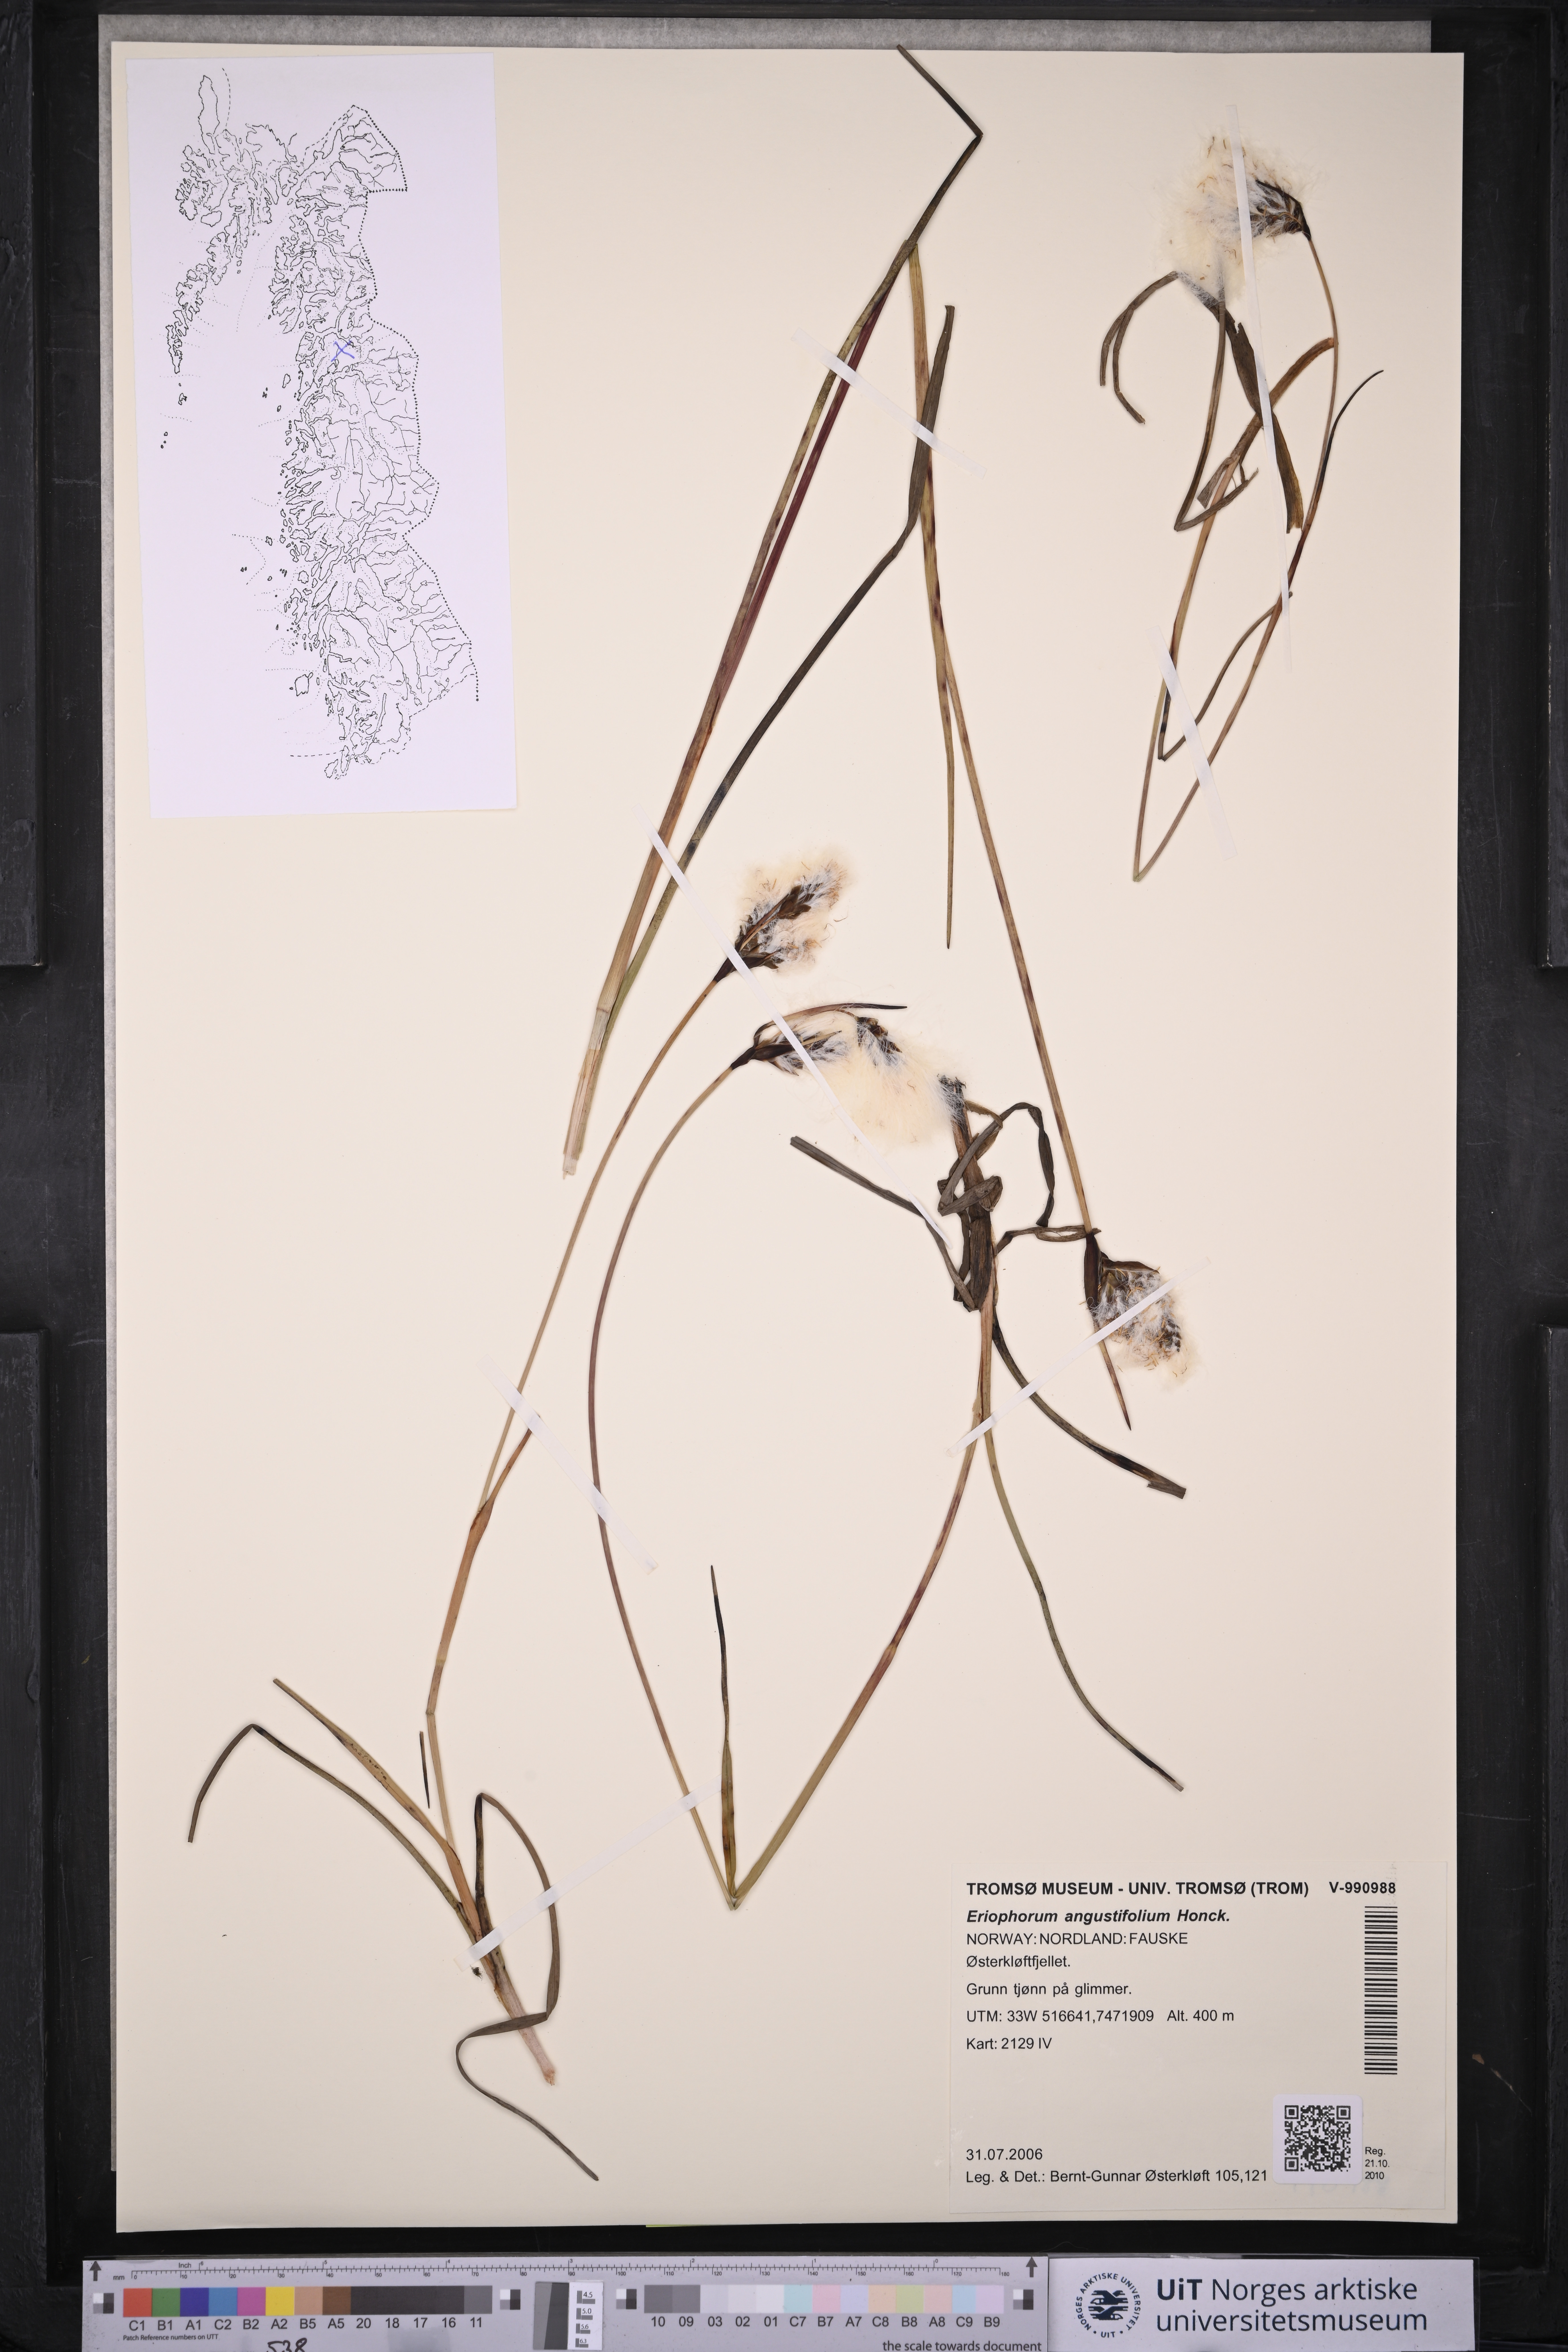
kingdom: Plantae
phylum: Tracheophyta
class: Liliopsida
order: Poales
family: Cyperaceae
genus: Eriophorum
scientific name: Eriophorum angustifolium
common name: Common cottongrass
